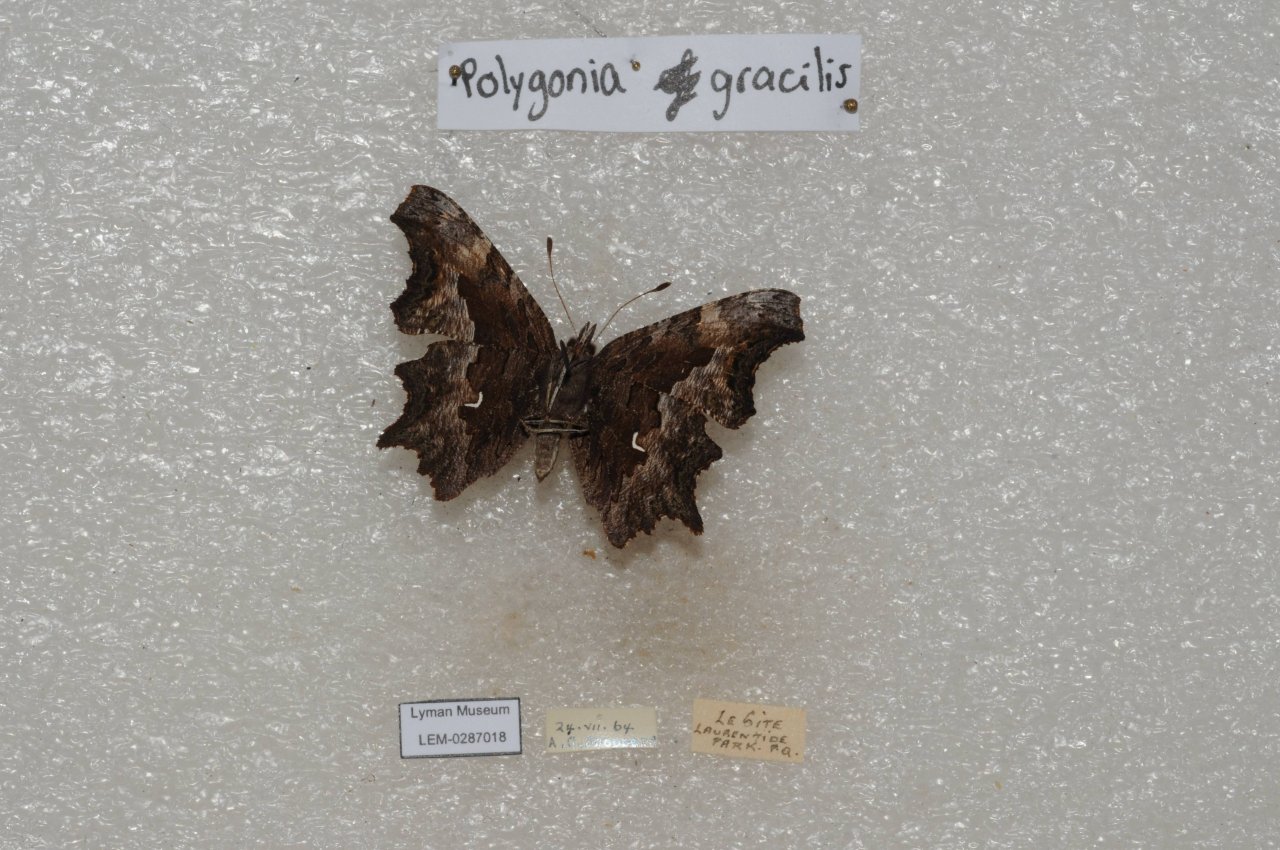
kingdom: Animalia
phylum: Arthropoda
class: Insecta
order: Lepidoptera
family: Nymphalidae
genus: Polygonia
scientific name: Polygonia gracilis
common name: Hoary Comma
